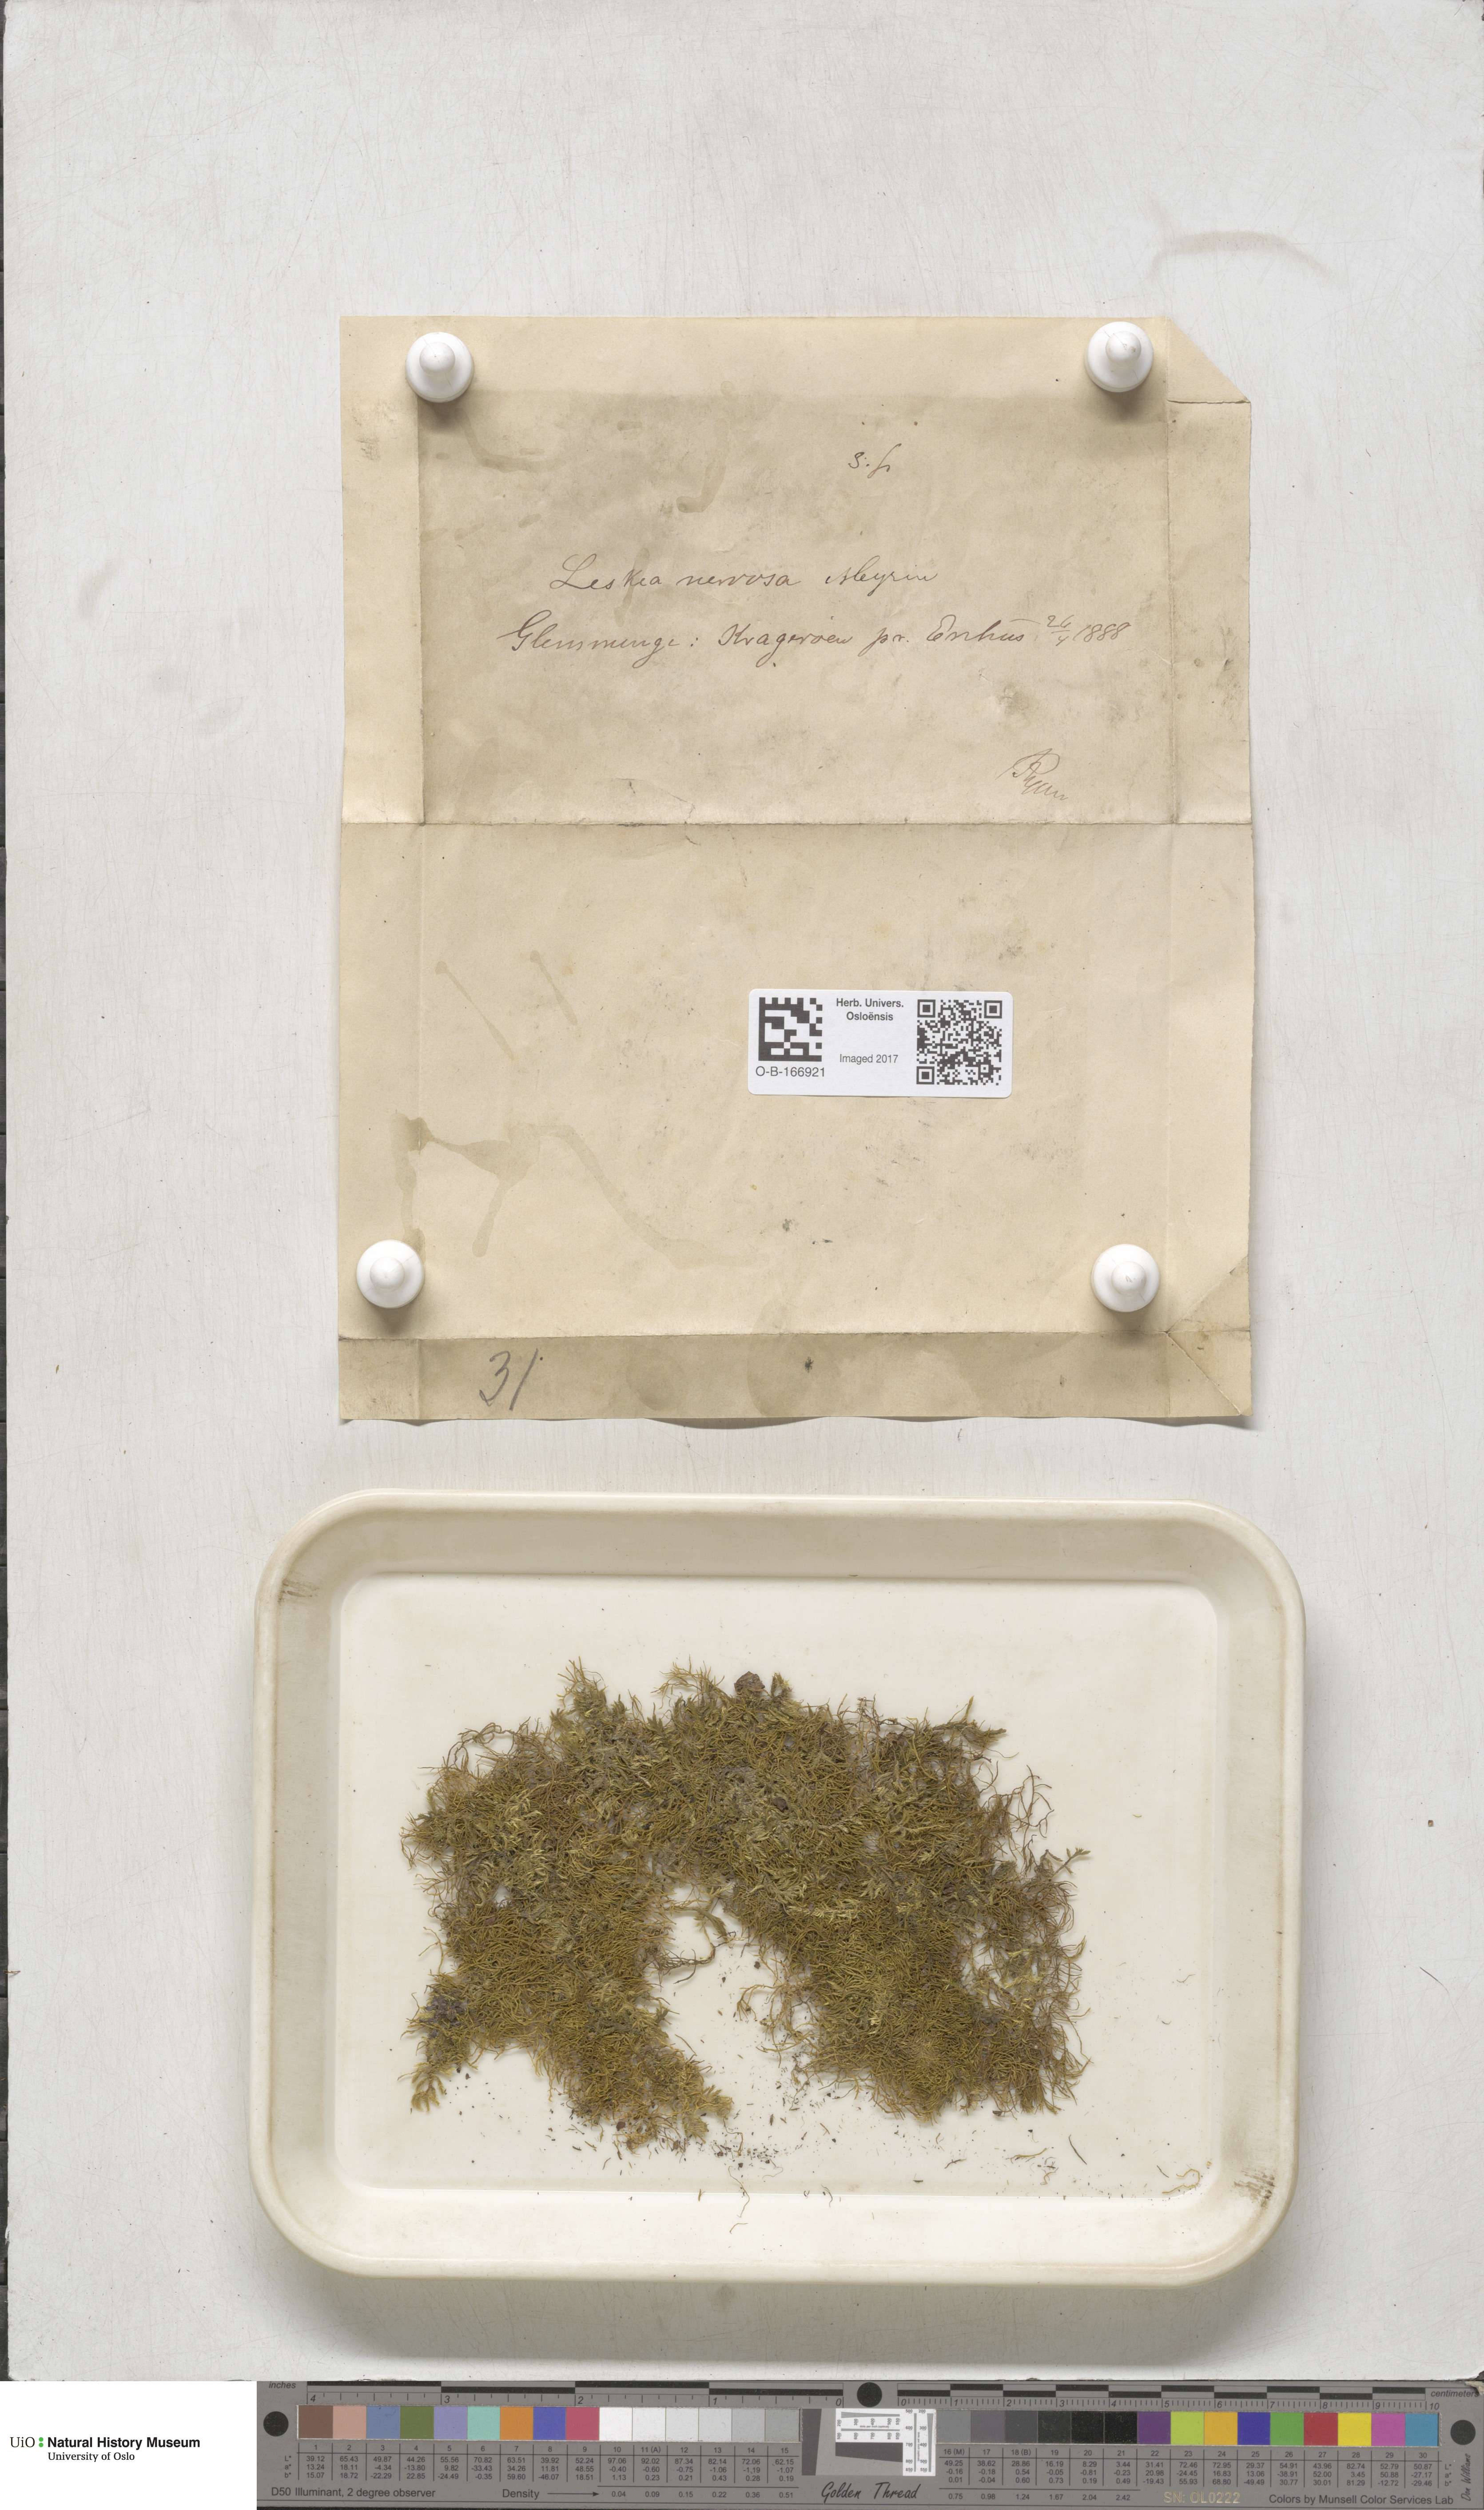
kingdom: Plantae
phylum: Bryophyta
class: Bryopsida
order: Hypnales
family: Pseudoleskeellaceae
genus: Pseudoleskeella
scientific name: Pseudoleskeella nervosa
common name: Nerved leske's moss
